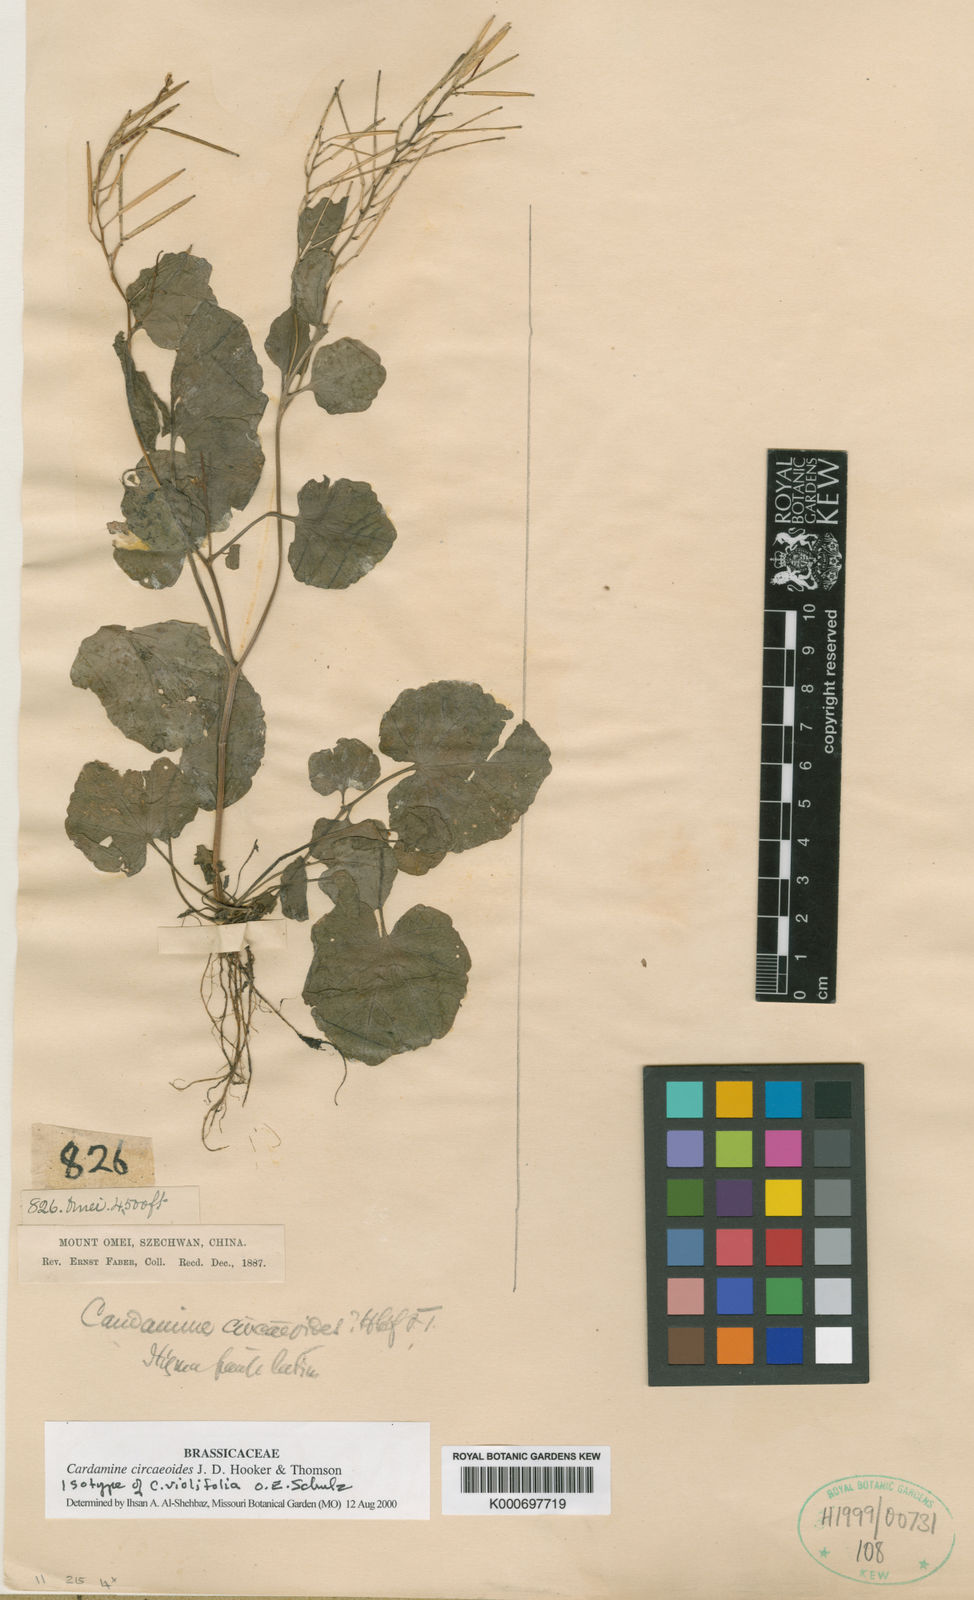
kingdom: Plantae
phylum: Tracheophyta
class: Magnoliopsida
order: Brassicales
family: Brassicaceae
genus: Cardamine
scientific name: Cardamine circaeoides
